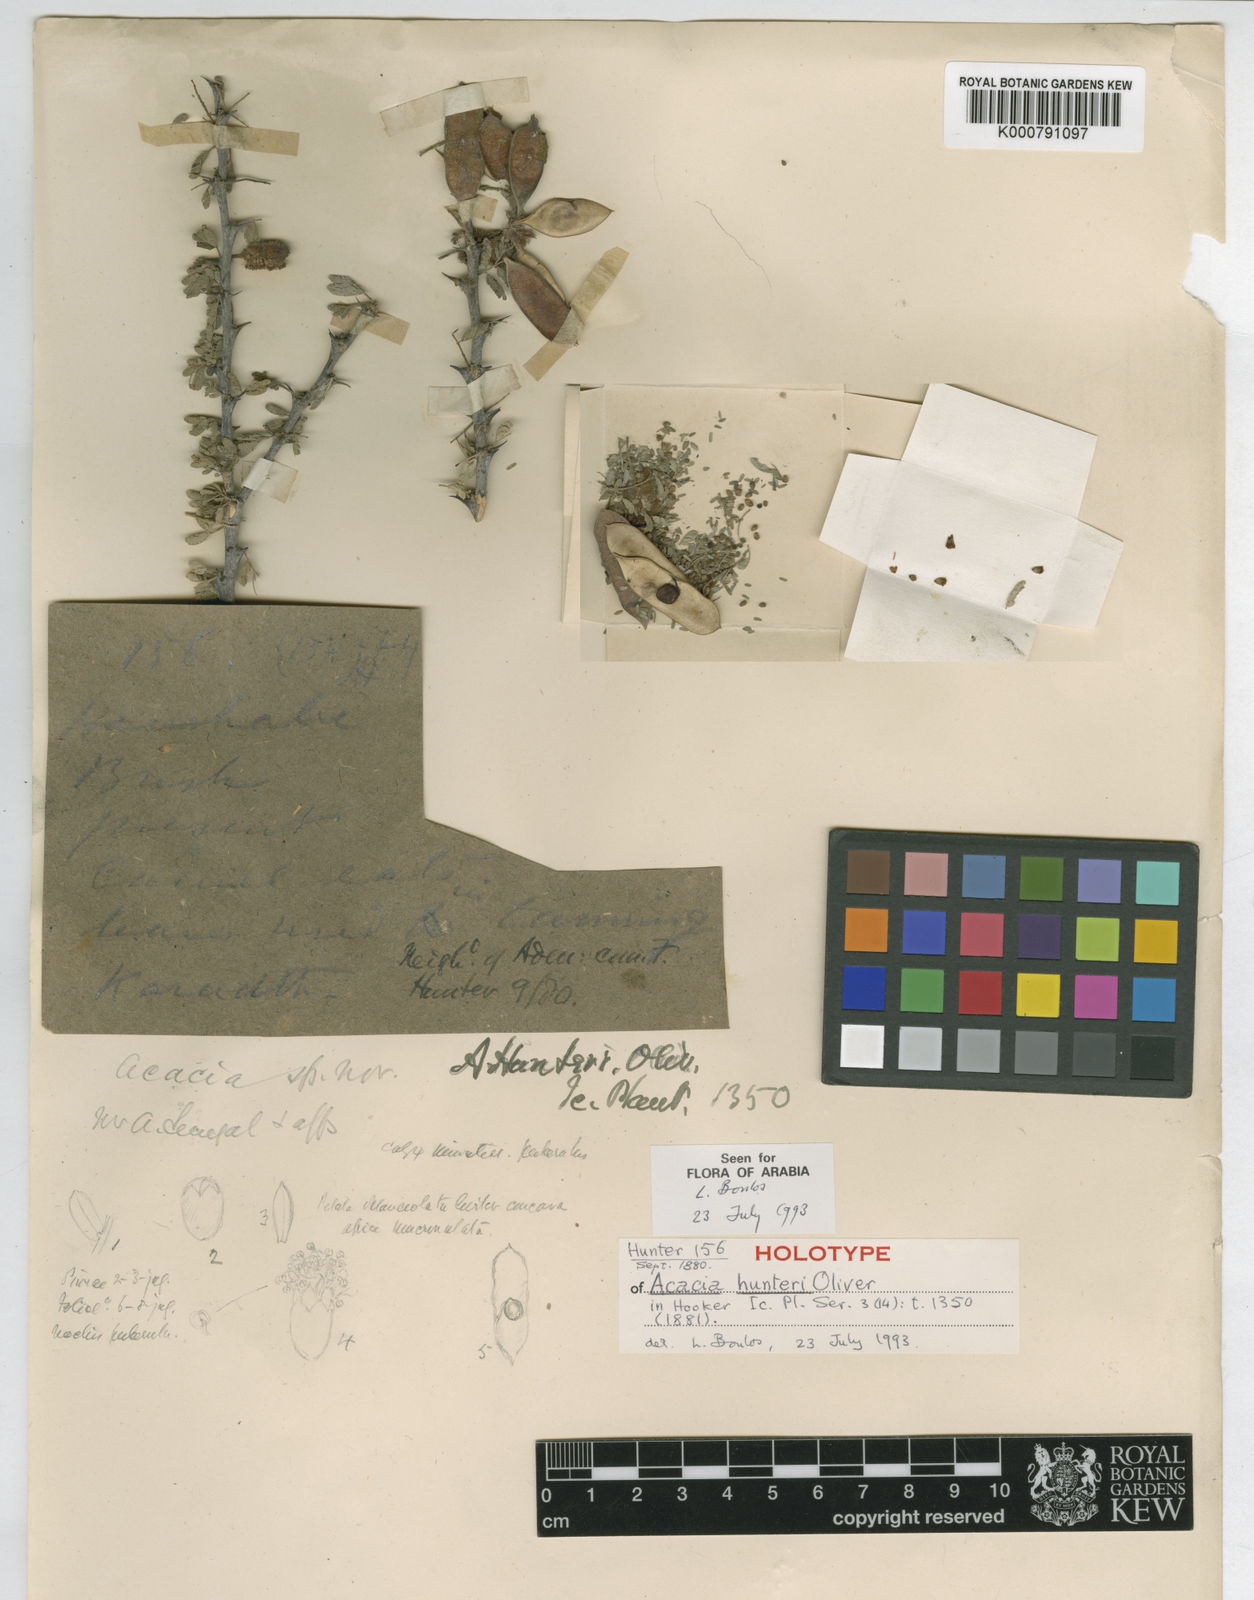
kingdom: Plantae
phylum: Tracheophyta
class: Magnoliopsida
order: Fabales
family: Fabaceae
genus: Vachellia
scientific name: Vachellia hunteri
